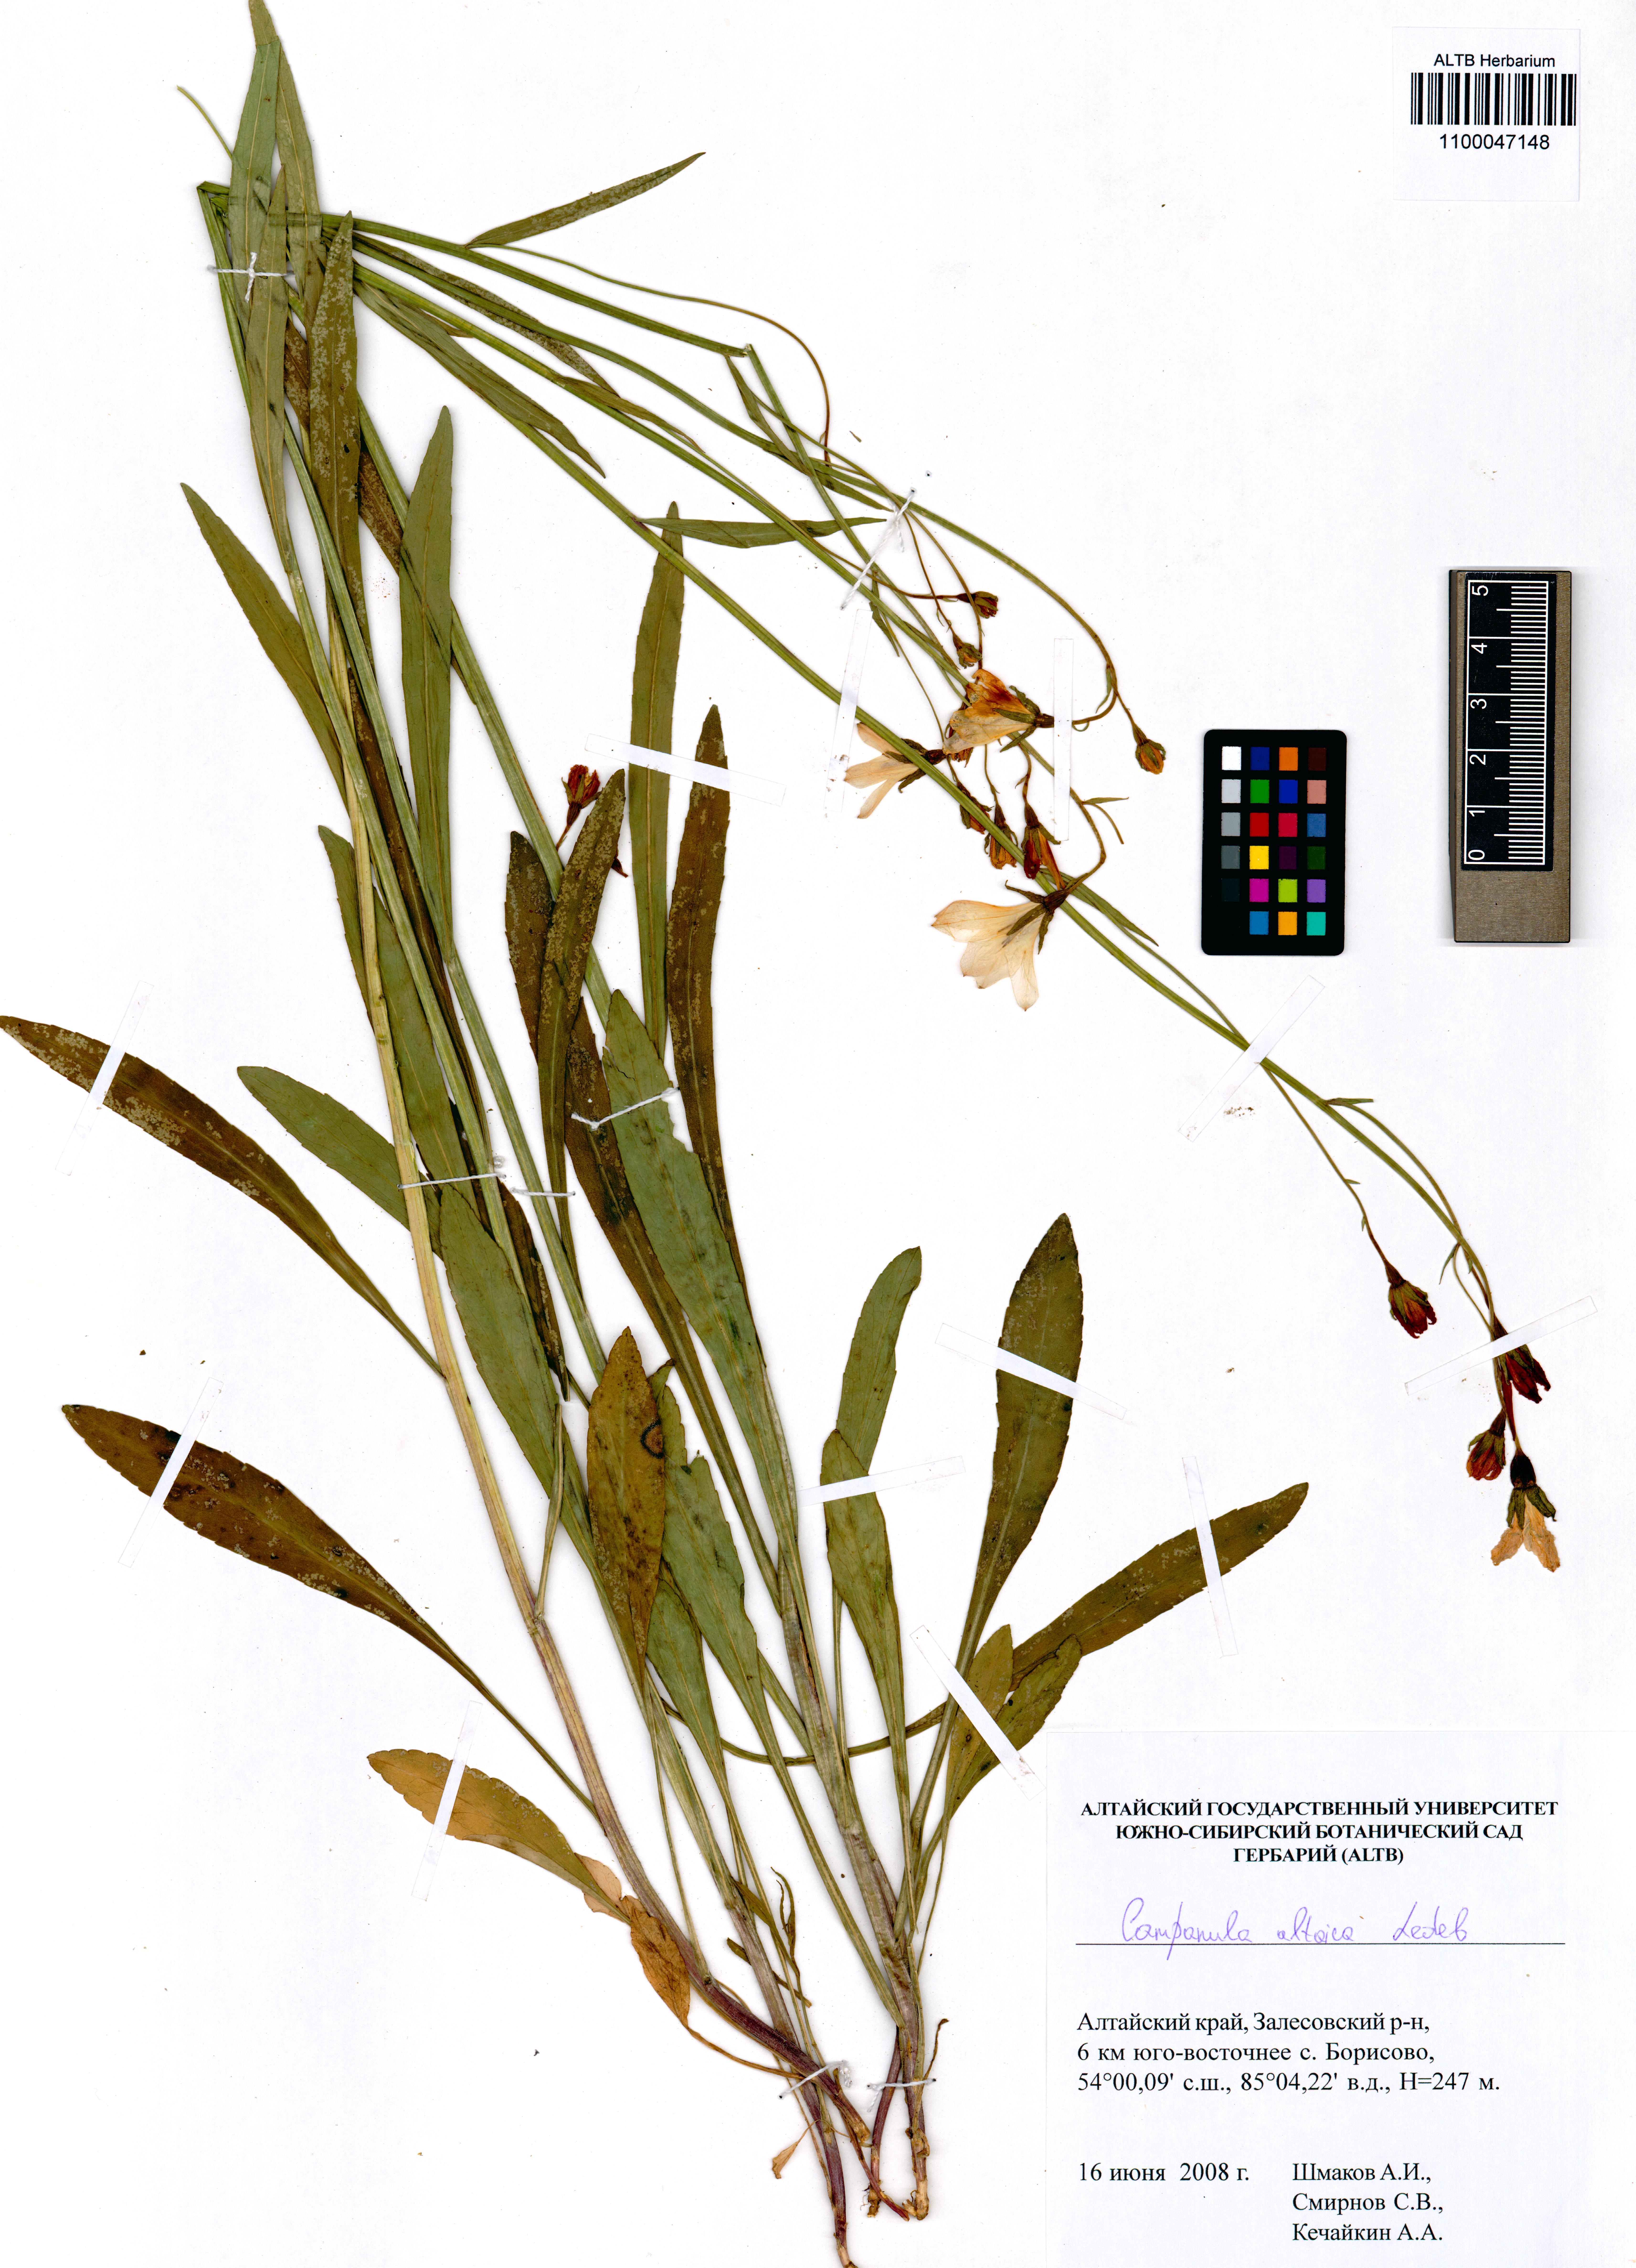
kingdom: Plantae
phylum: Tracheophyta
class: Magnoliopsida
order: Asterales
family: Campanulaceae
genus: Campanula
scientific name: Campanula stevenii
